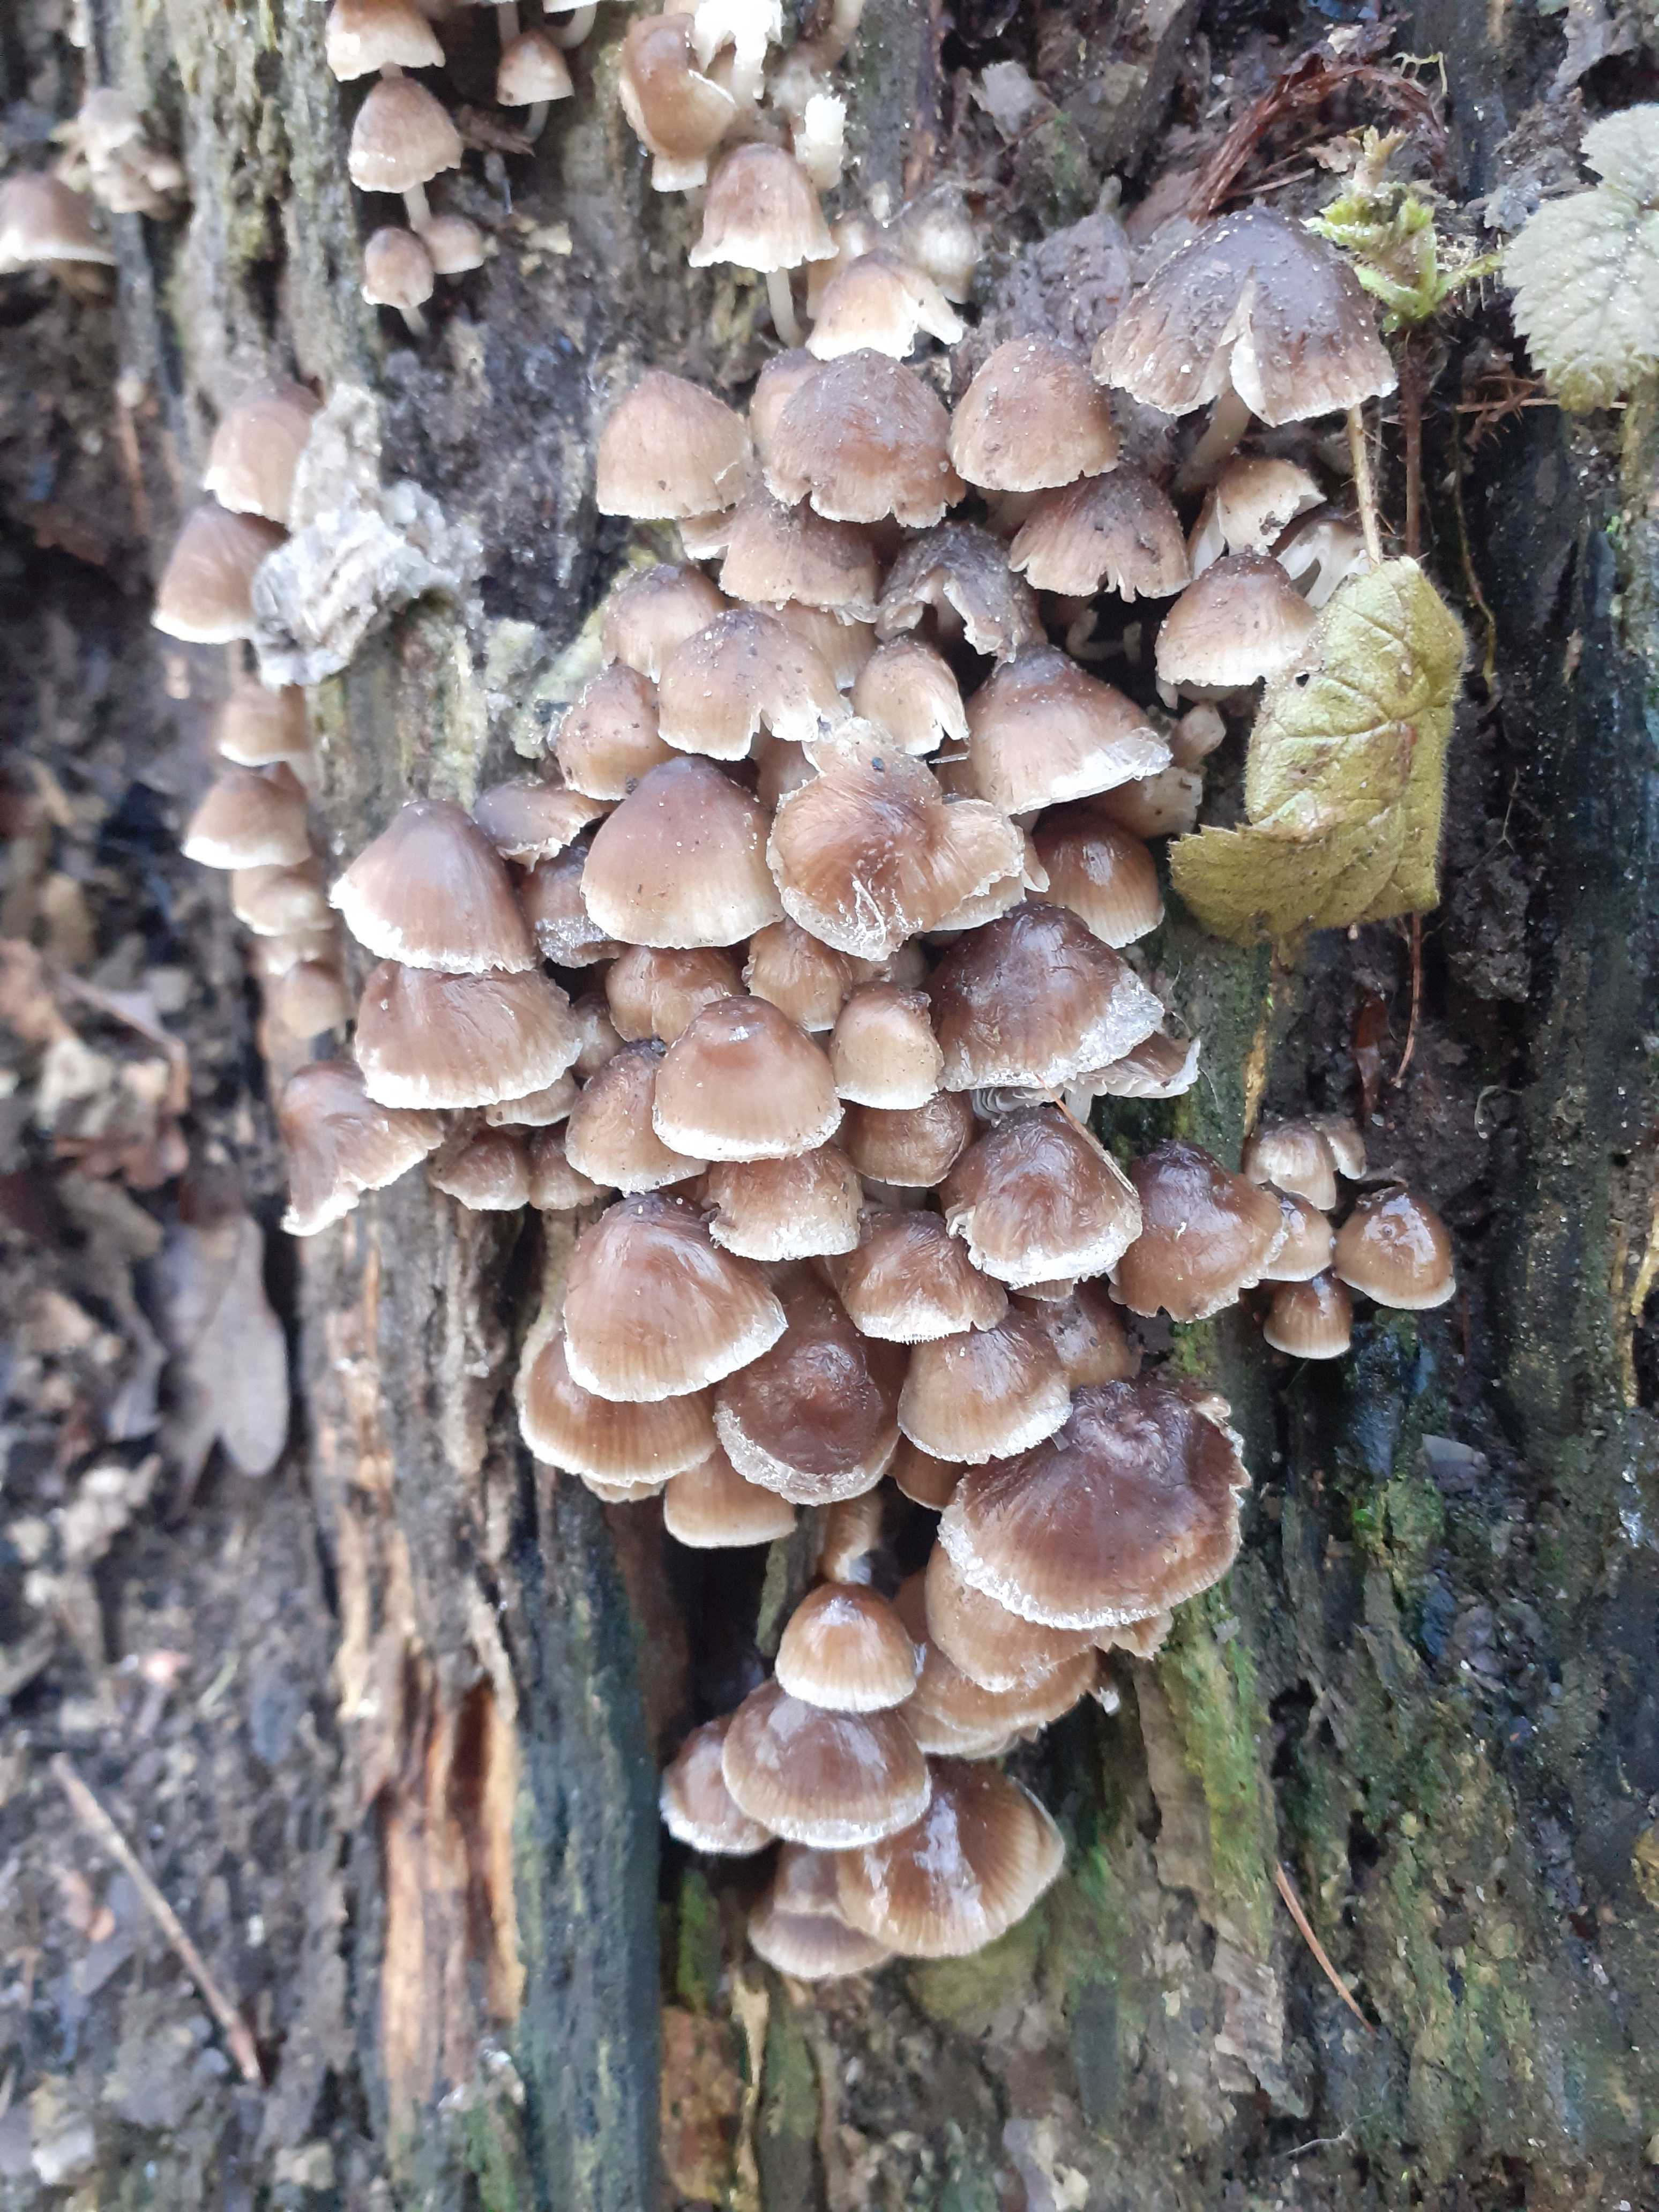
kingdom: Fungi
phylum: Basidiomycota
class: Agaricomycetes
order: Agaricales
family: Mycenaceae
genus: Mycena
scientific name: Mycena tintinnabulum
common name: vinter-huesvamp
